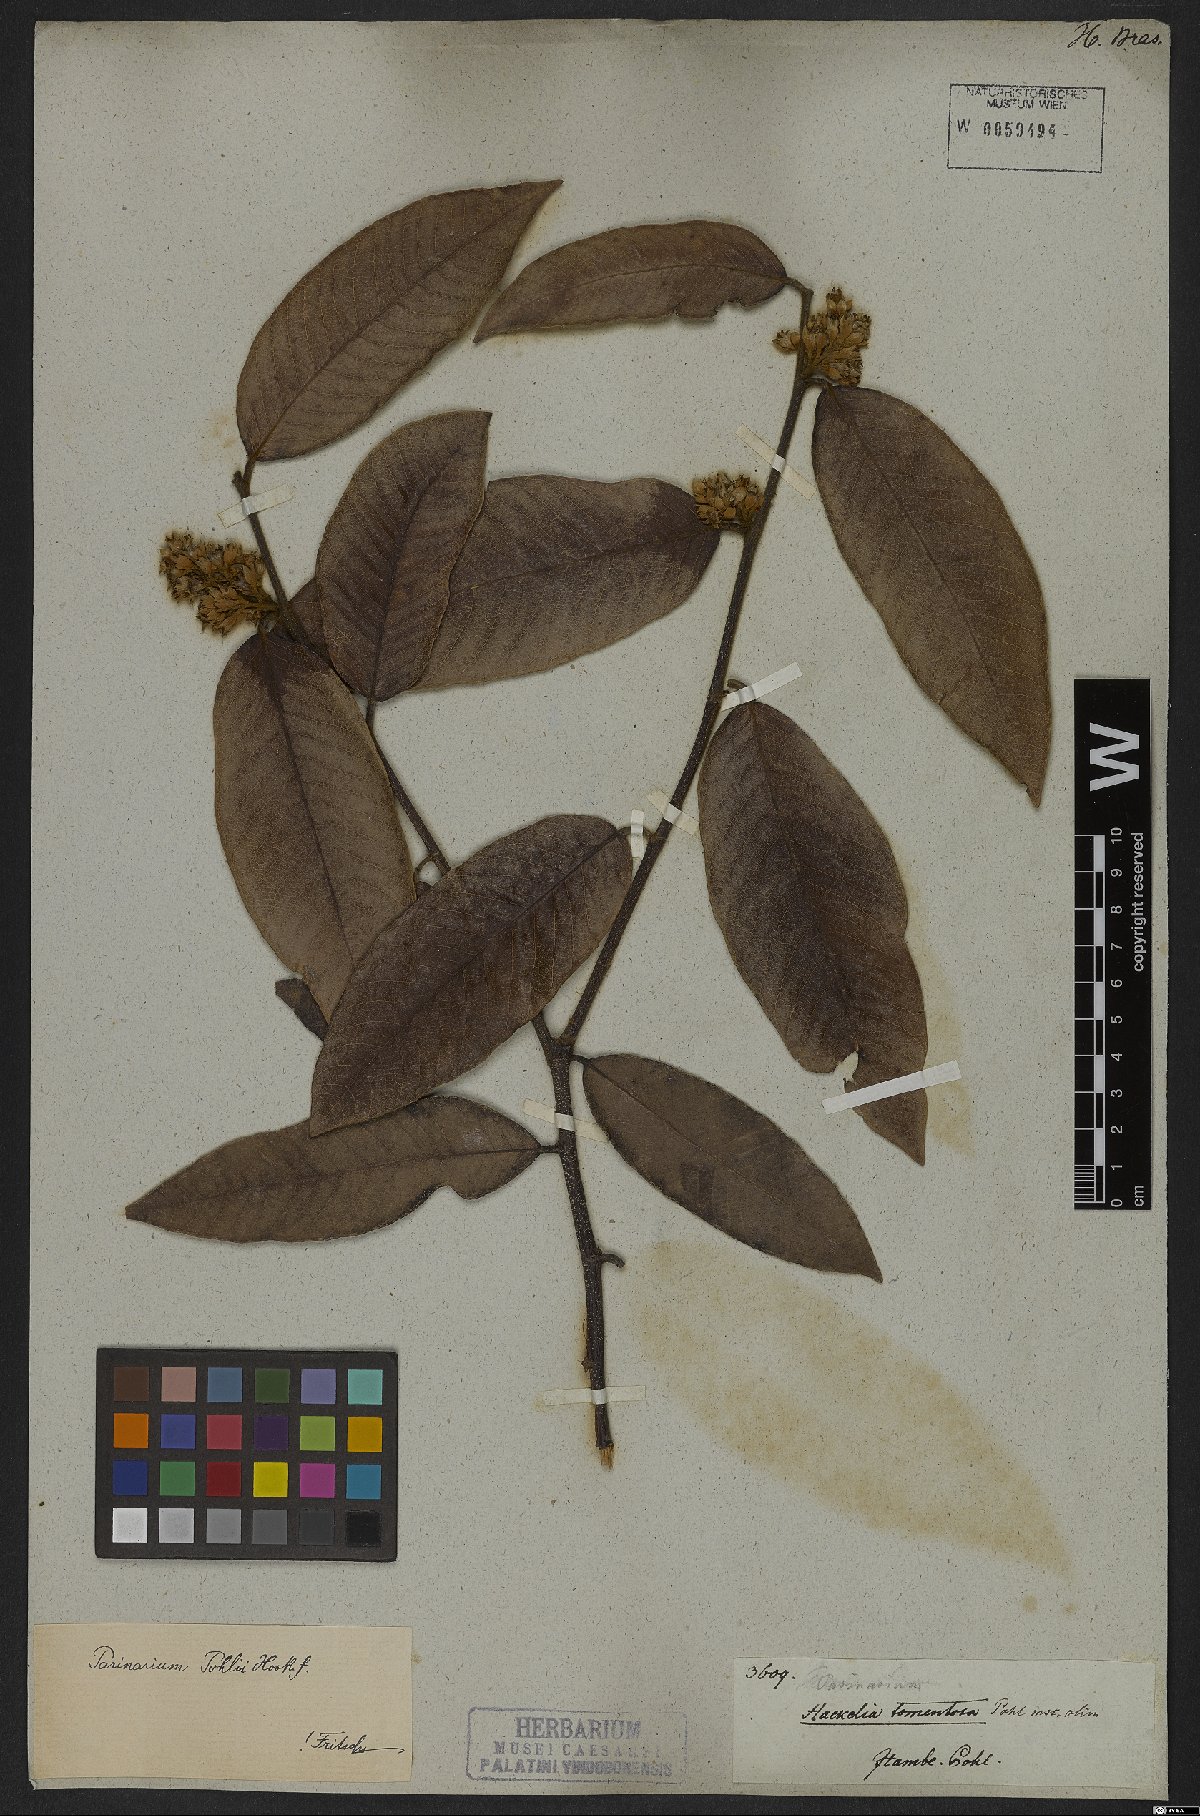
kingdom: Plantae
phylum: Tracheophyta
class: Magnoliopsida
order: Malpighiales
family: Chrysobalanaceae
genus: Parinari
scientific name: Parinari brasiliensis
